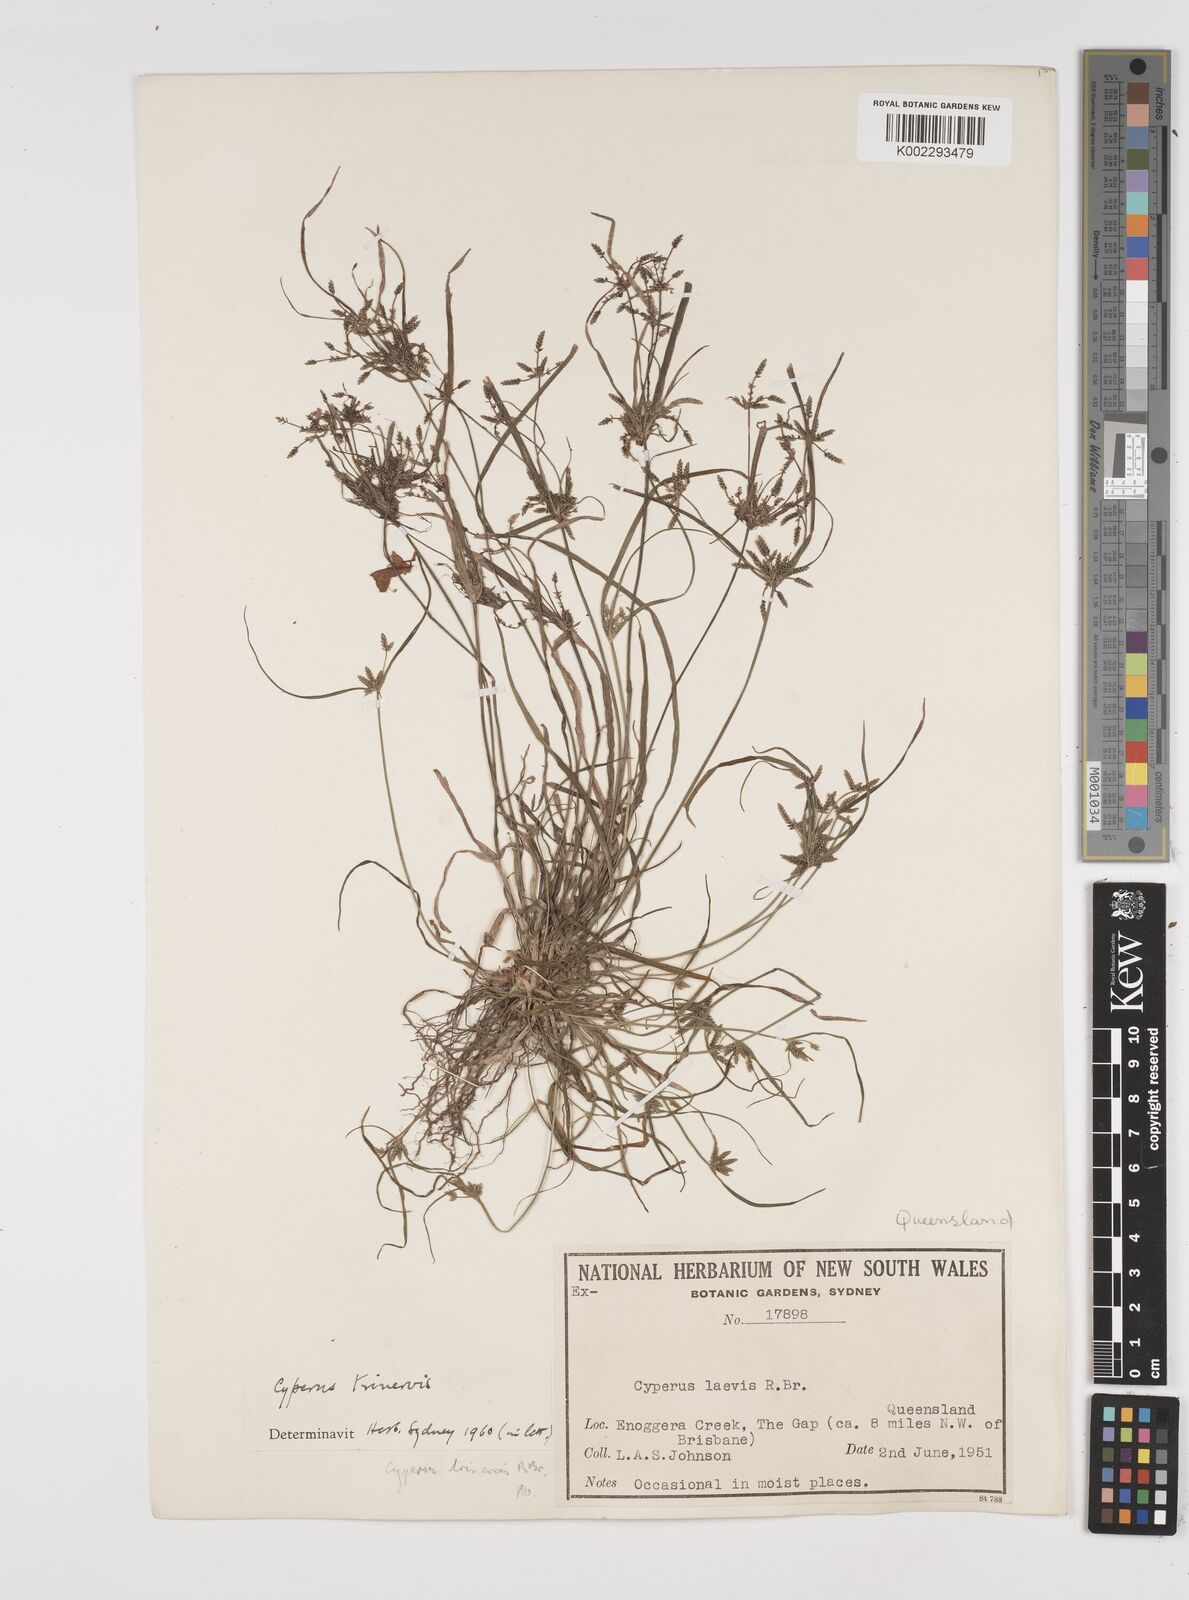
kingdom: Plantae
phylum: Tracheophyta
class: Liliopsida
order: Poales
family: Cyperaceae
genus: Cyperus
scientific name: Cyperus trinervis
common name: Australian flatsedge
